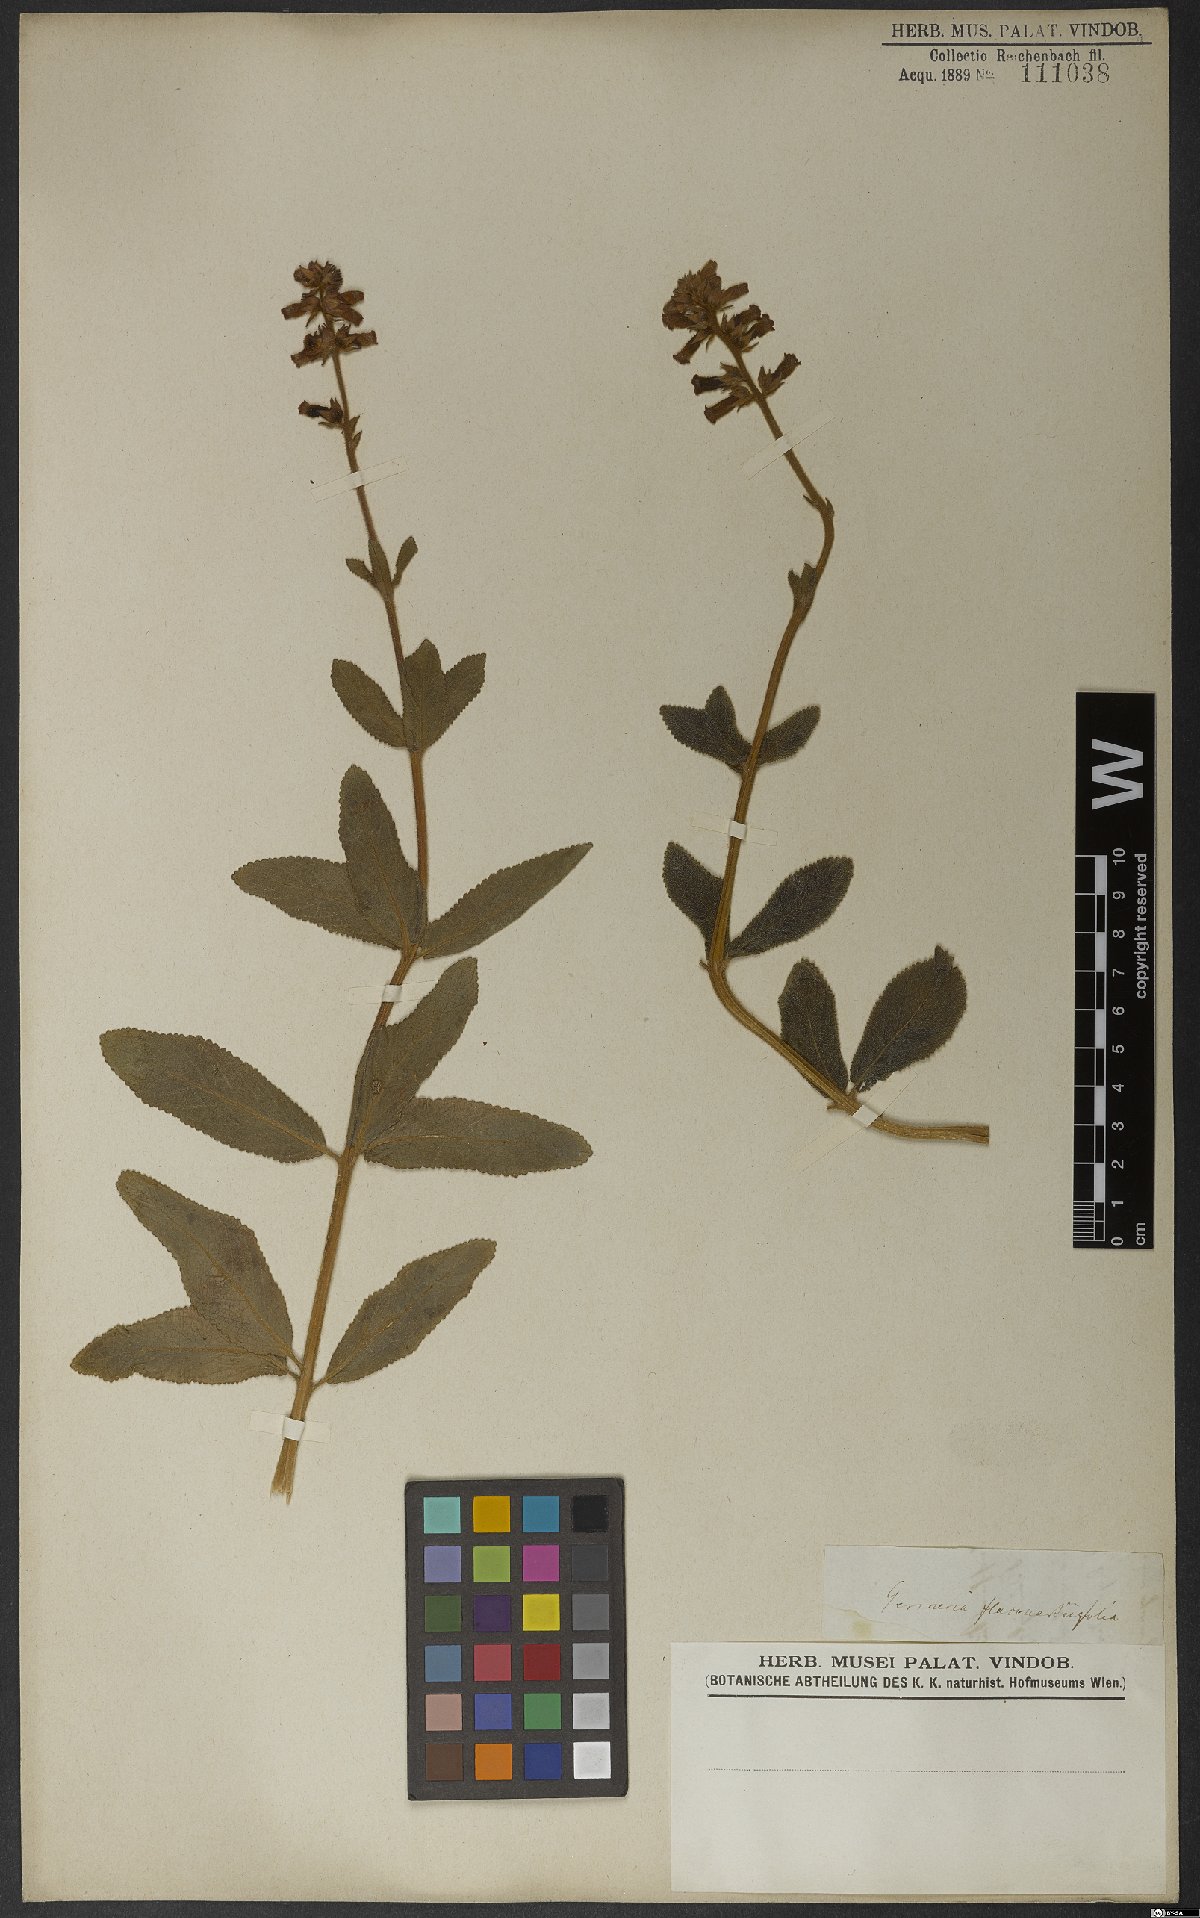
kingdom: Plantae
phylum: Tracheophyta
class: Magnoliopsida
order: Lamiales
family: Gesneriaceae
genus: Sinningia
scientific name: Sinningia allagophylla
